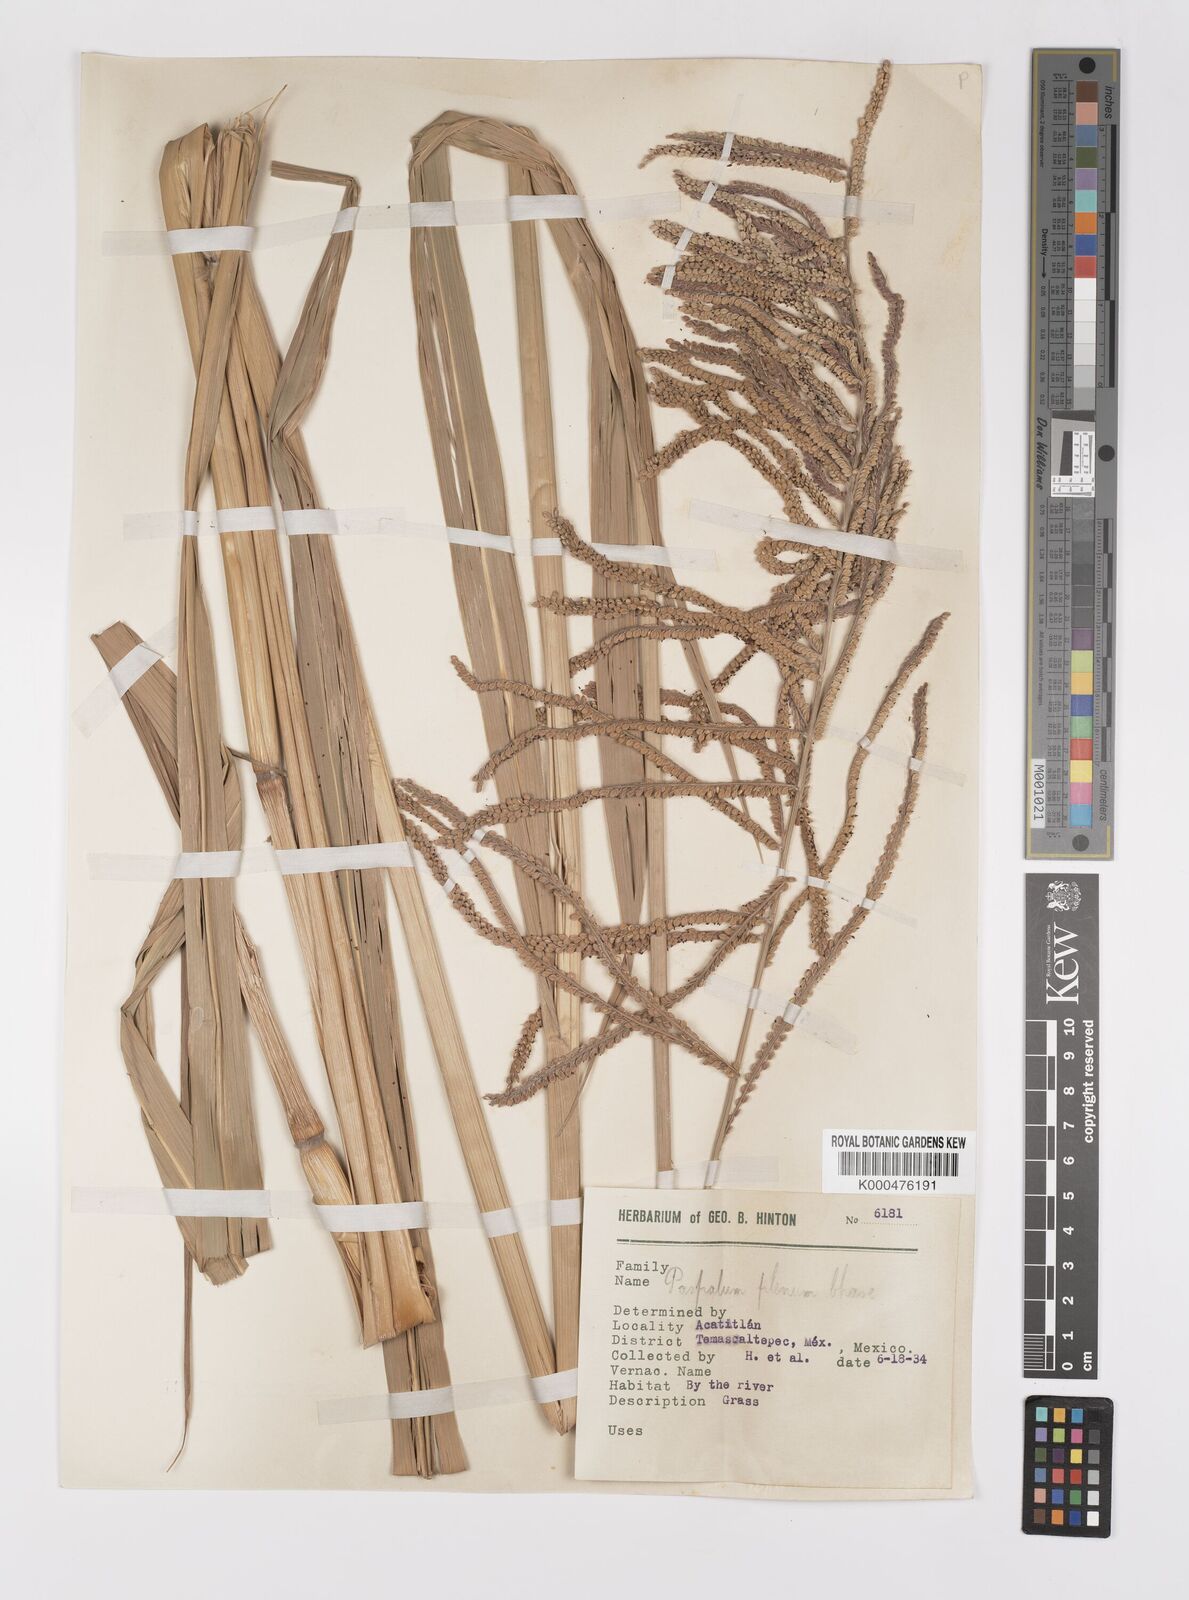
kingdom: Plantae
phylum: Tracheophyta
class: Liliopsida
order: Poales
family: Poaceae
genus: Paspalum
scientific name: Paspalum plenum
